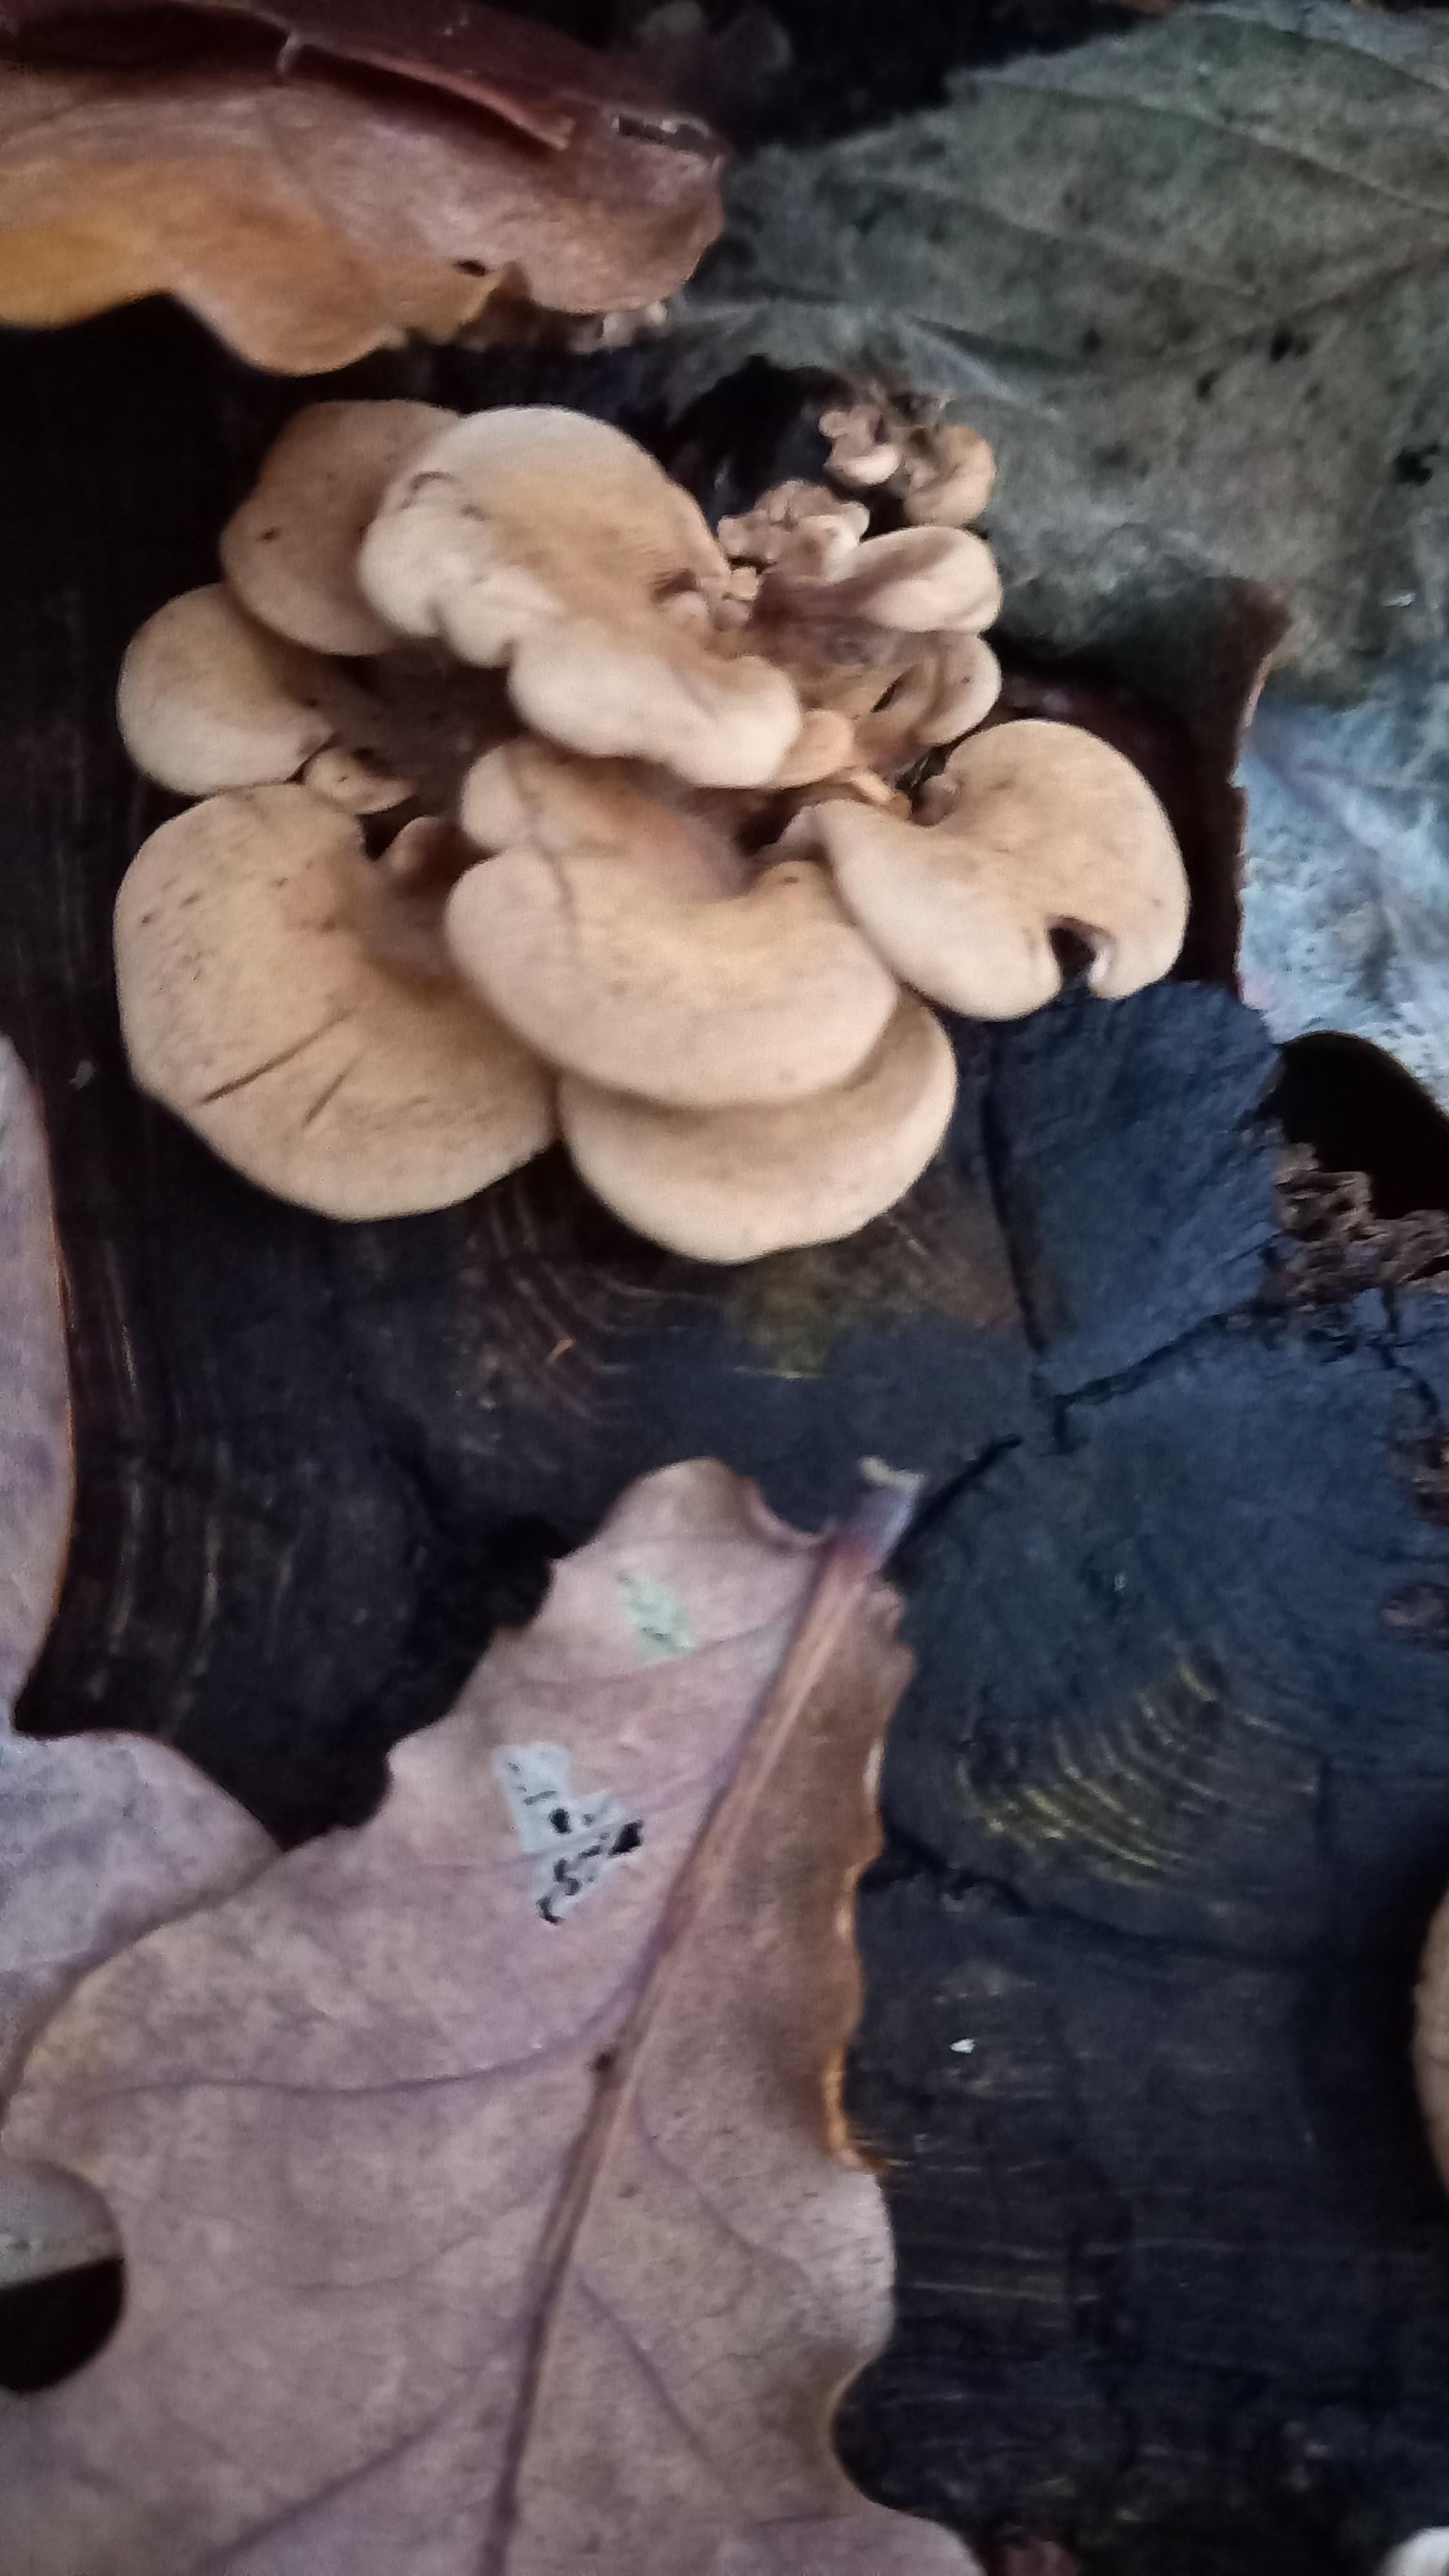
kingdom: Fungi
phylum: Basidiomycota
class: Agaricomycetes
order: Agaricales
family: Mycenaceae
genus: Panellus
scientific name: Panellus stipticus
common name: kliddet epaulethat
